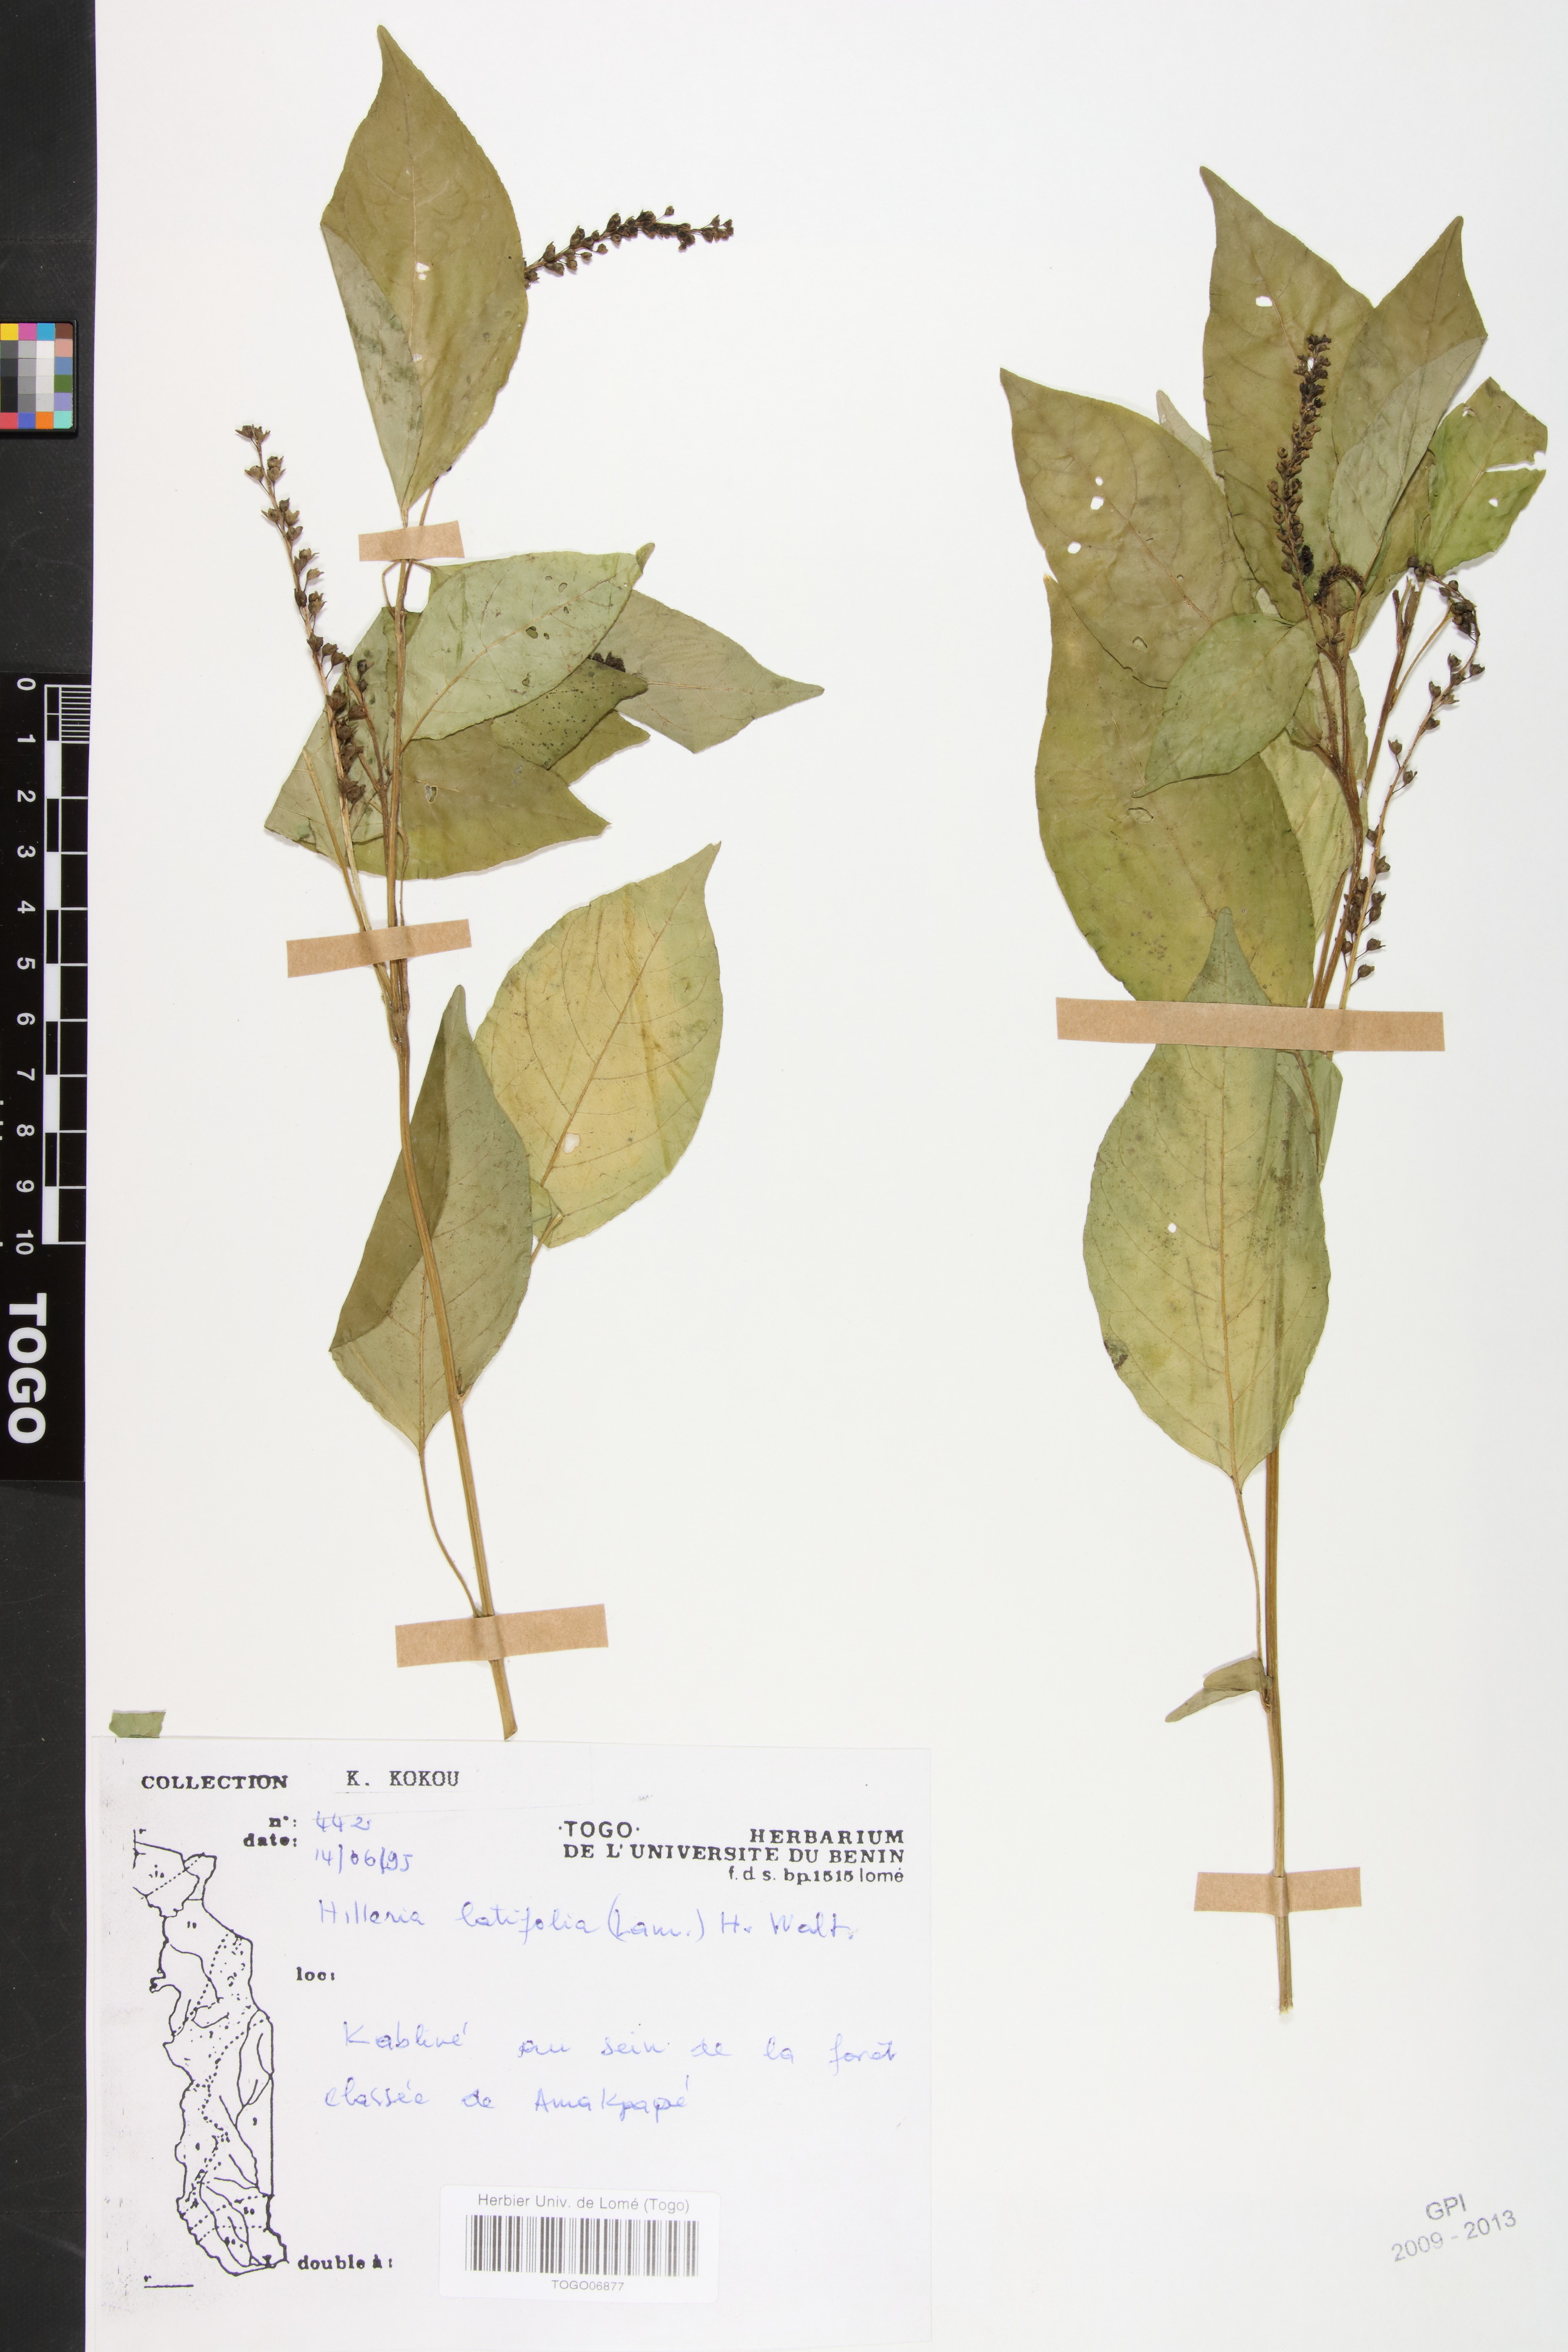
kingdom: Plantae
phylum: Tracheophyta
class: Magnoliopsida
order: Caryophyllales
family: Phytolaccaceae
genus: Hilleria
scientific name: Hilleria latifolia
